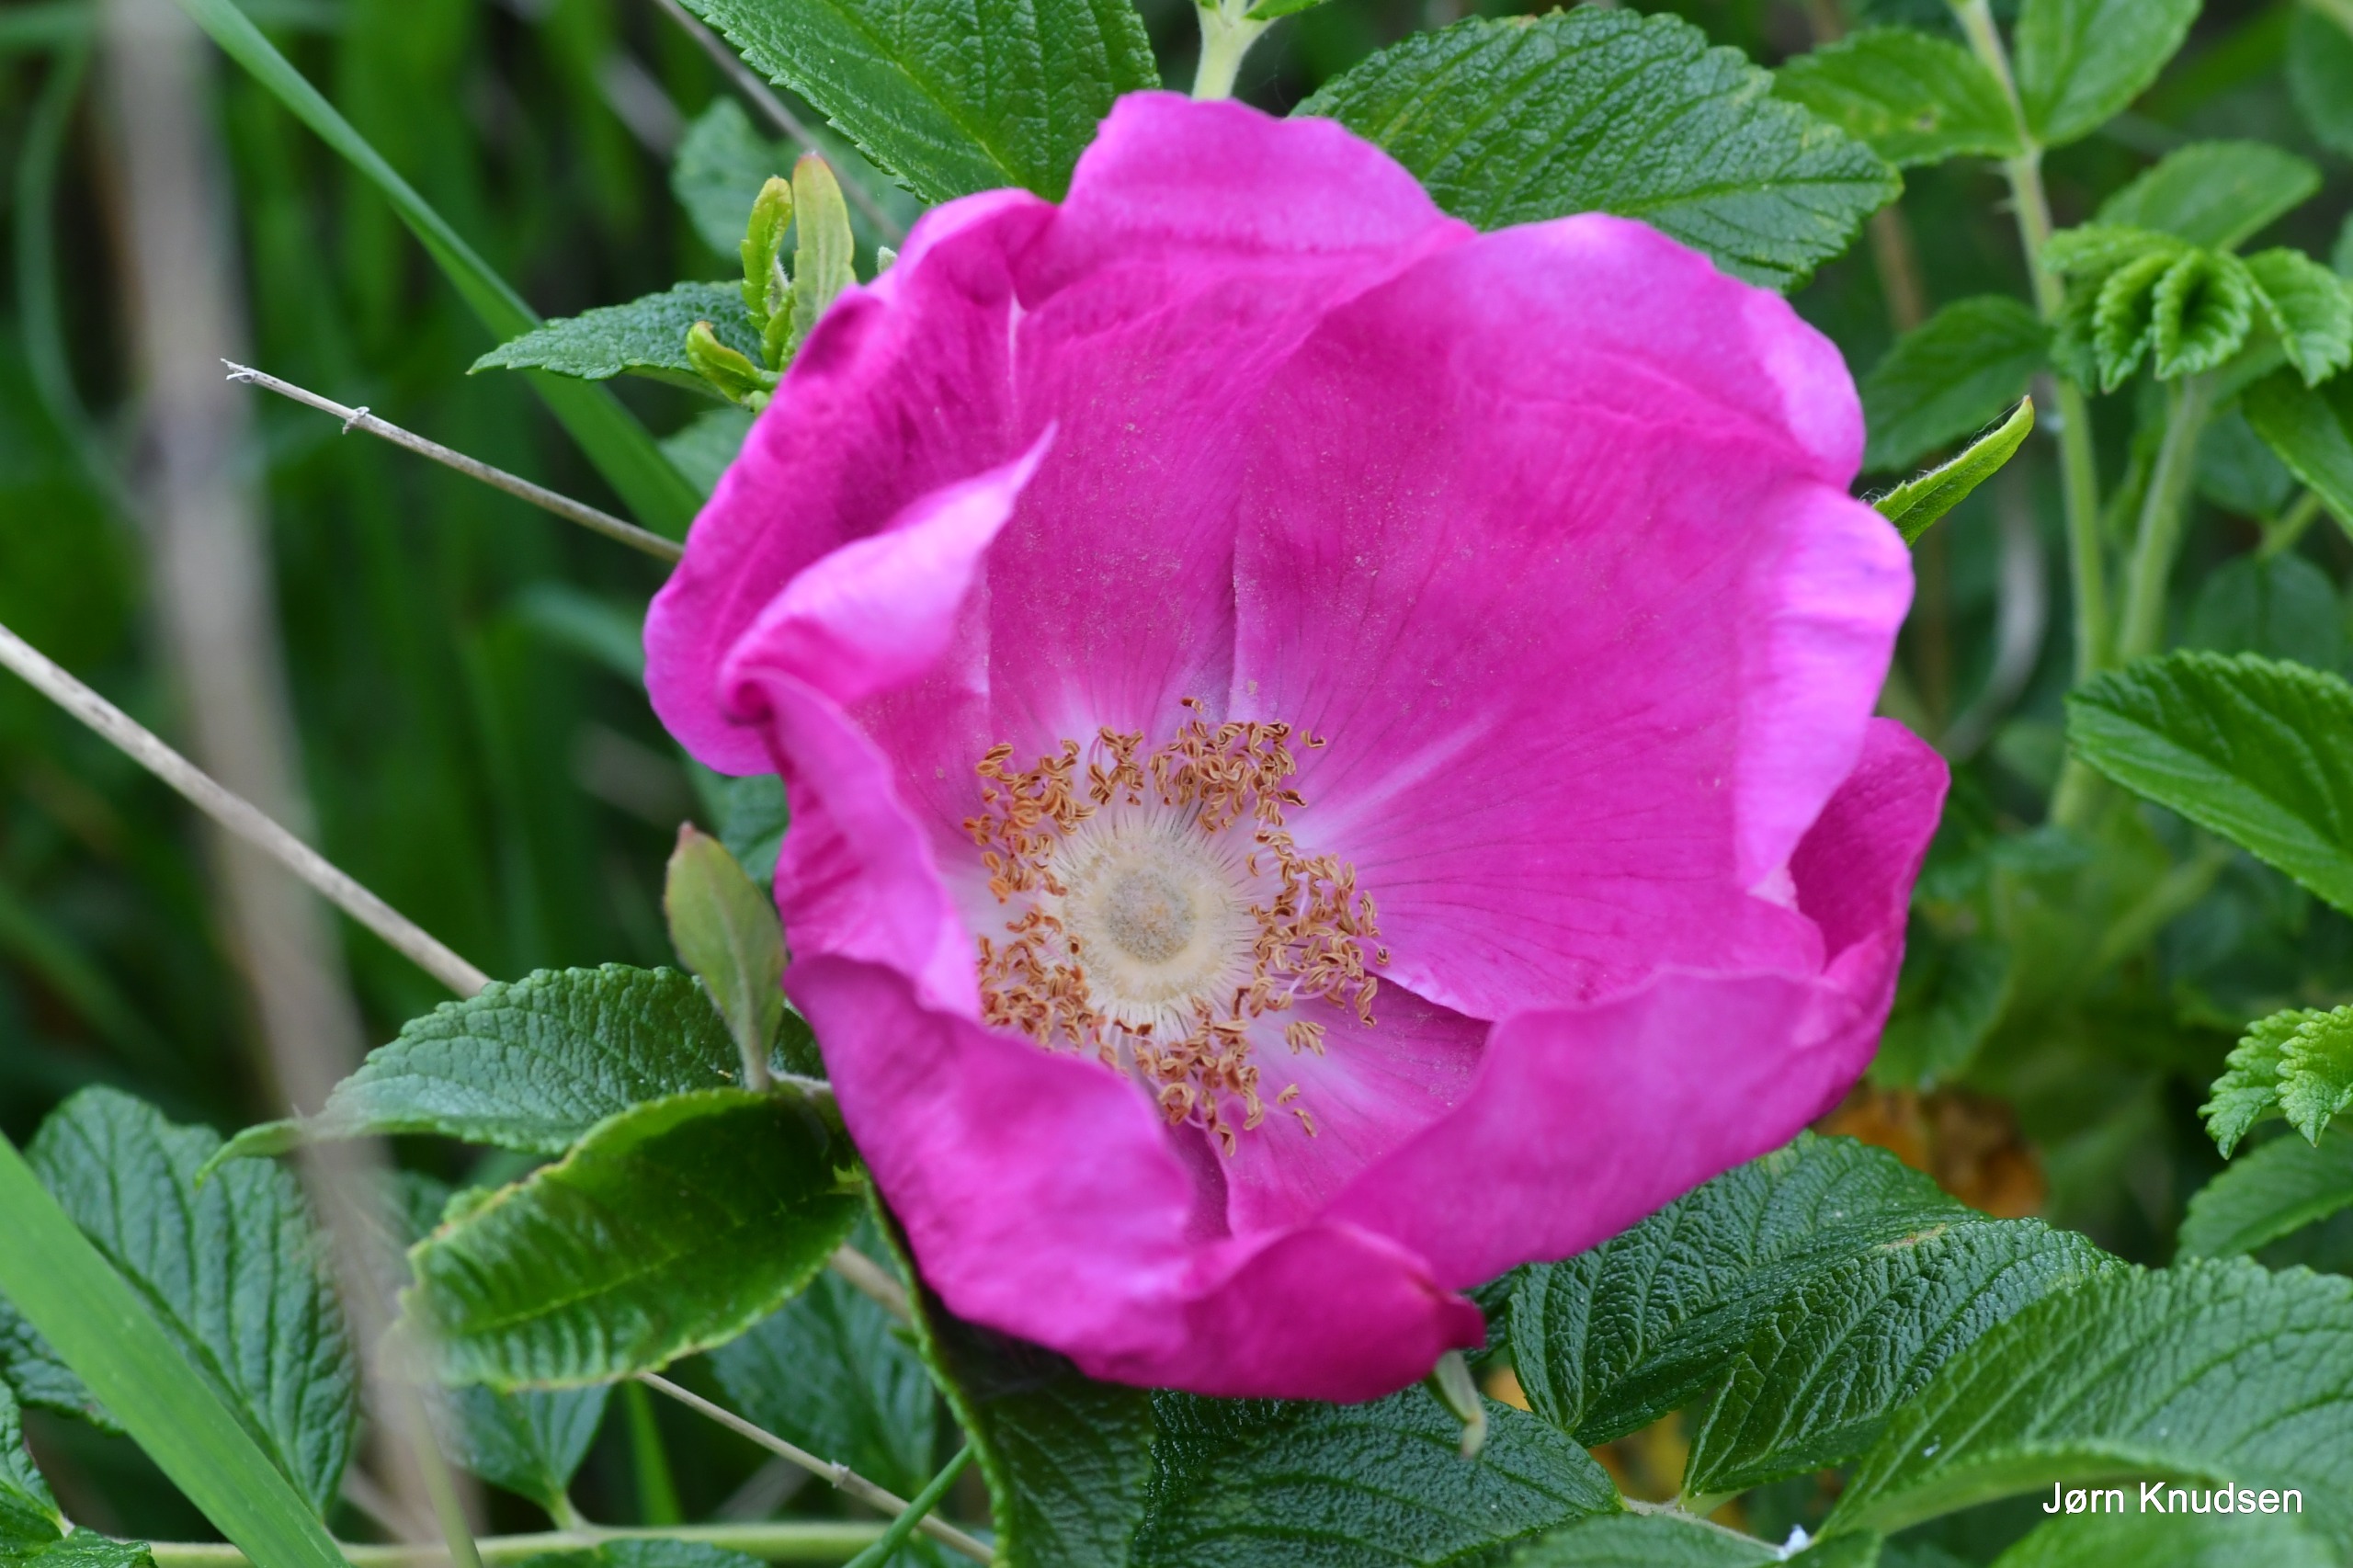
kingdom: Plantae
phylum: Tracheophyta
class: Magnoliopsida
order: Rosales
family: Rosaceae
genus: Rosa
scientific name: Rosa rugosa
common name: Rynket rose
